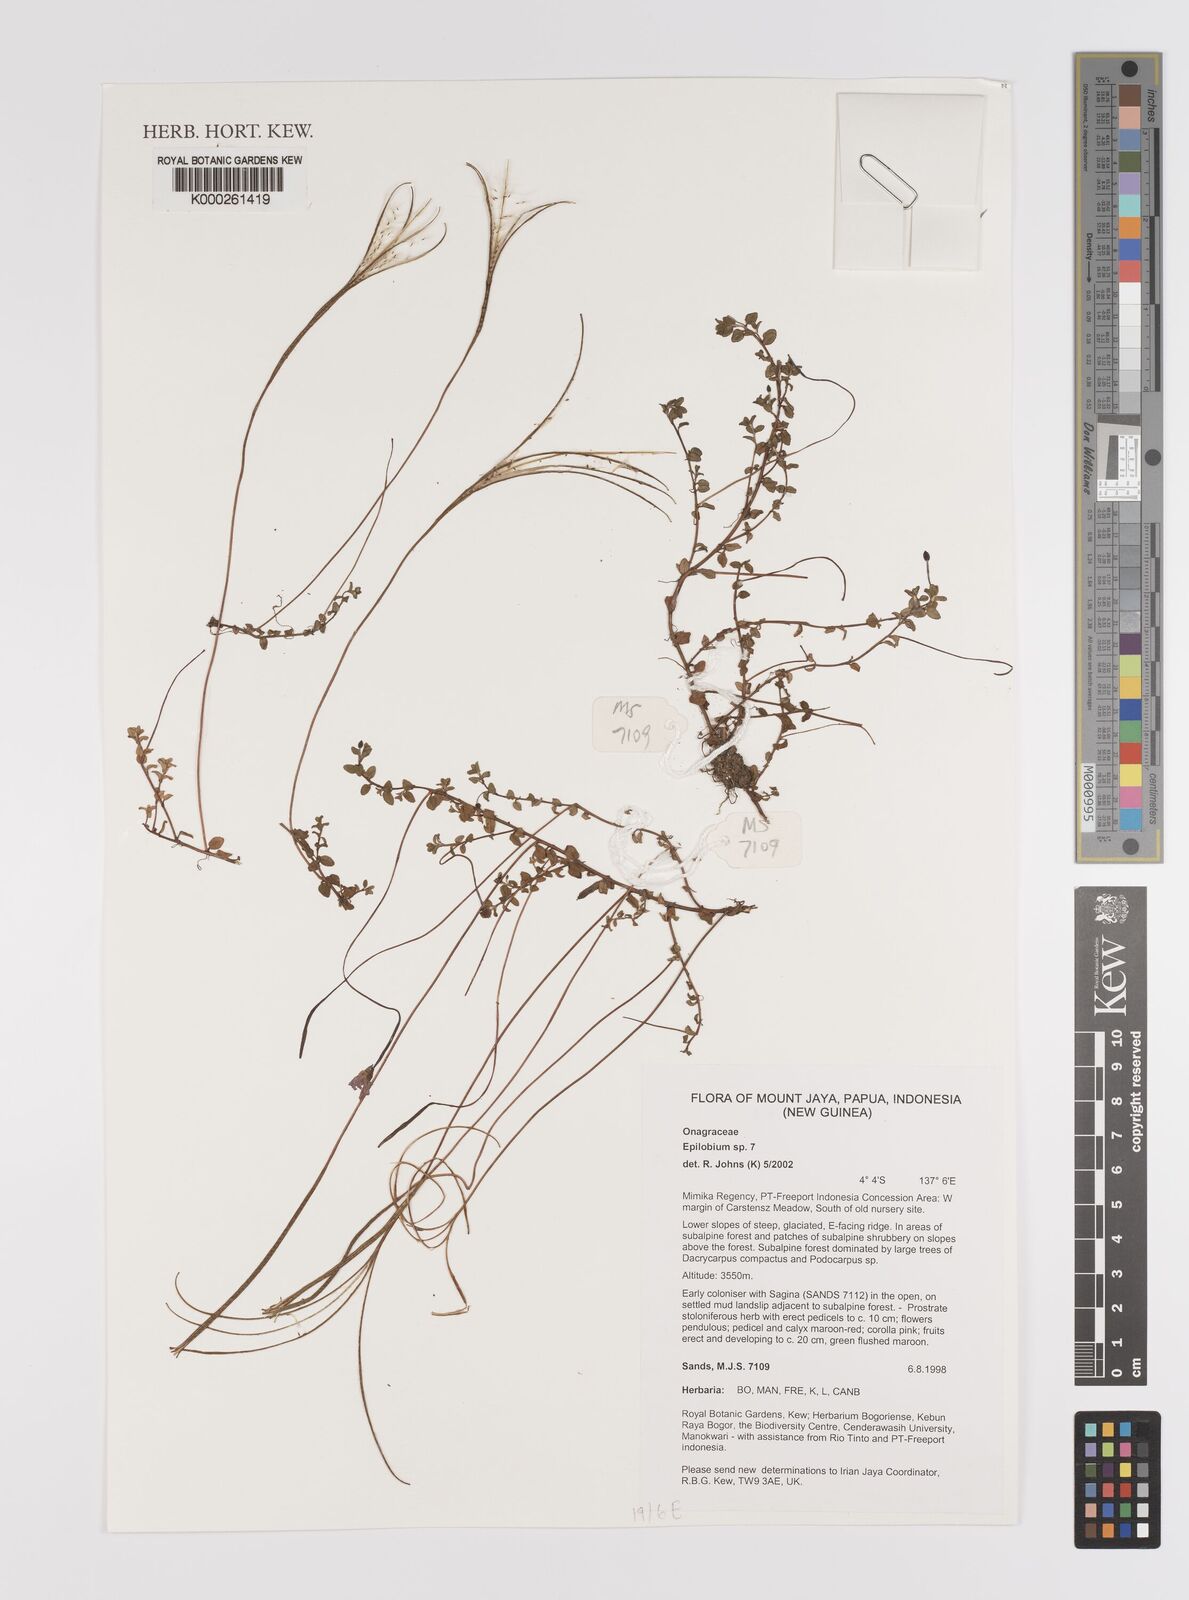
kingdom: Plantae
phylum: Tracheophyta
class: Magnoliopsida
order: Myrtales
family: Onagraceae
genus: Epilobium
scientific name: Epilobium
